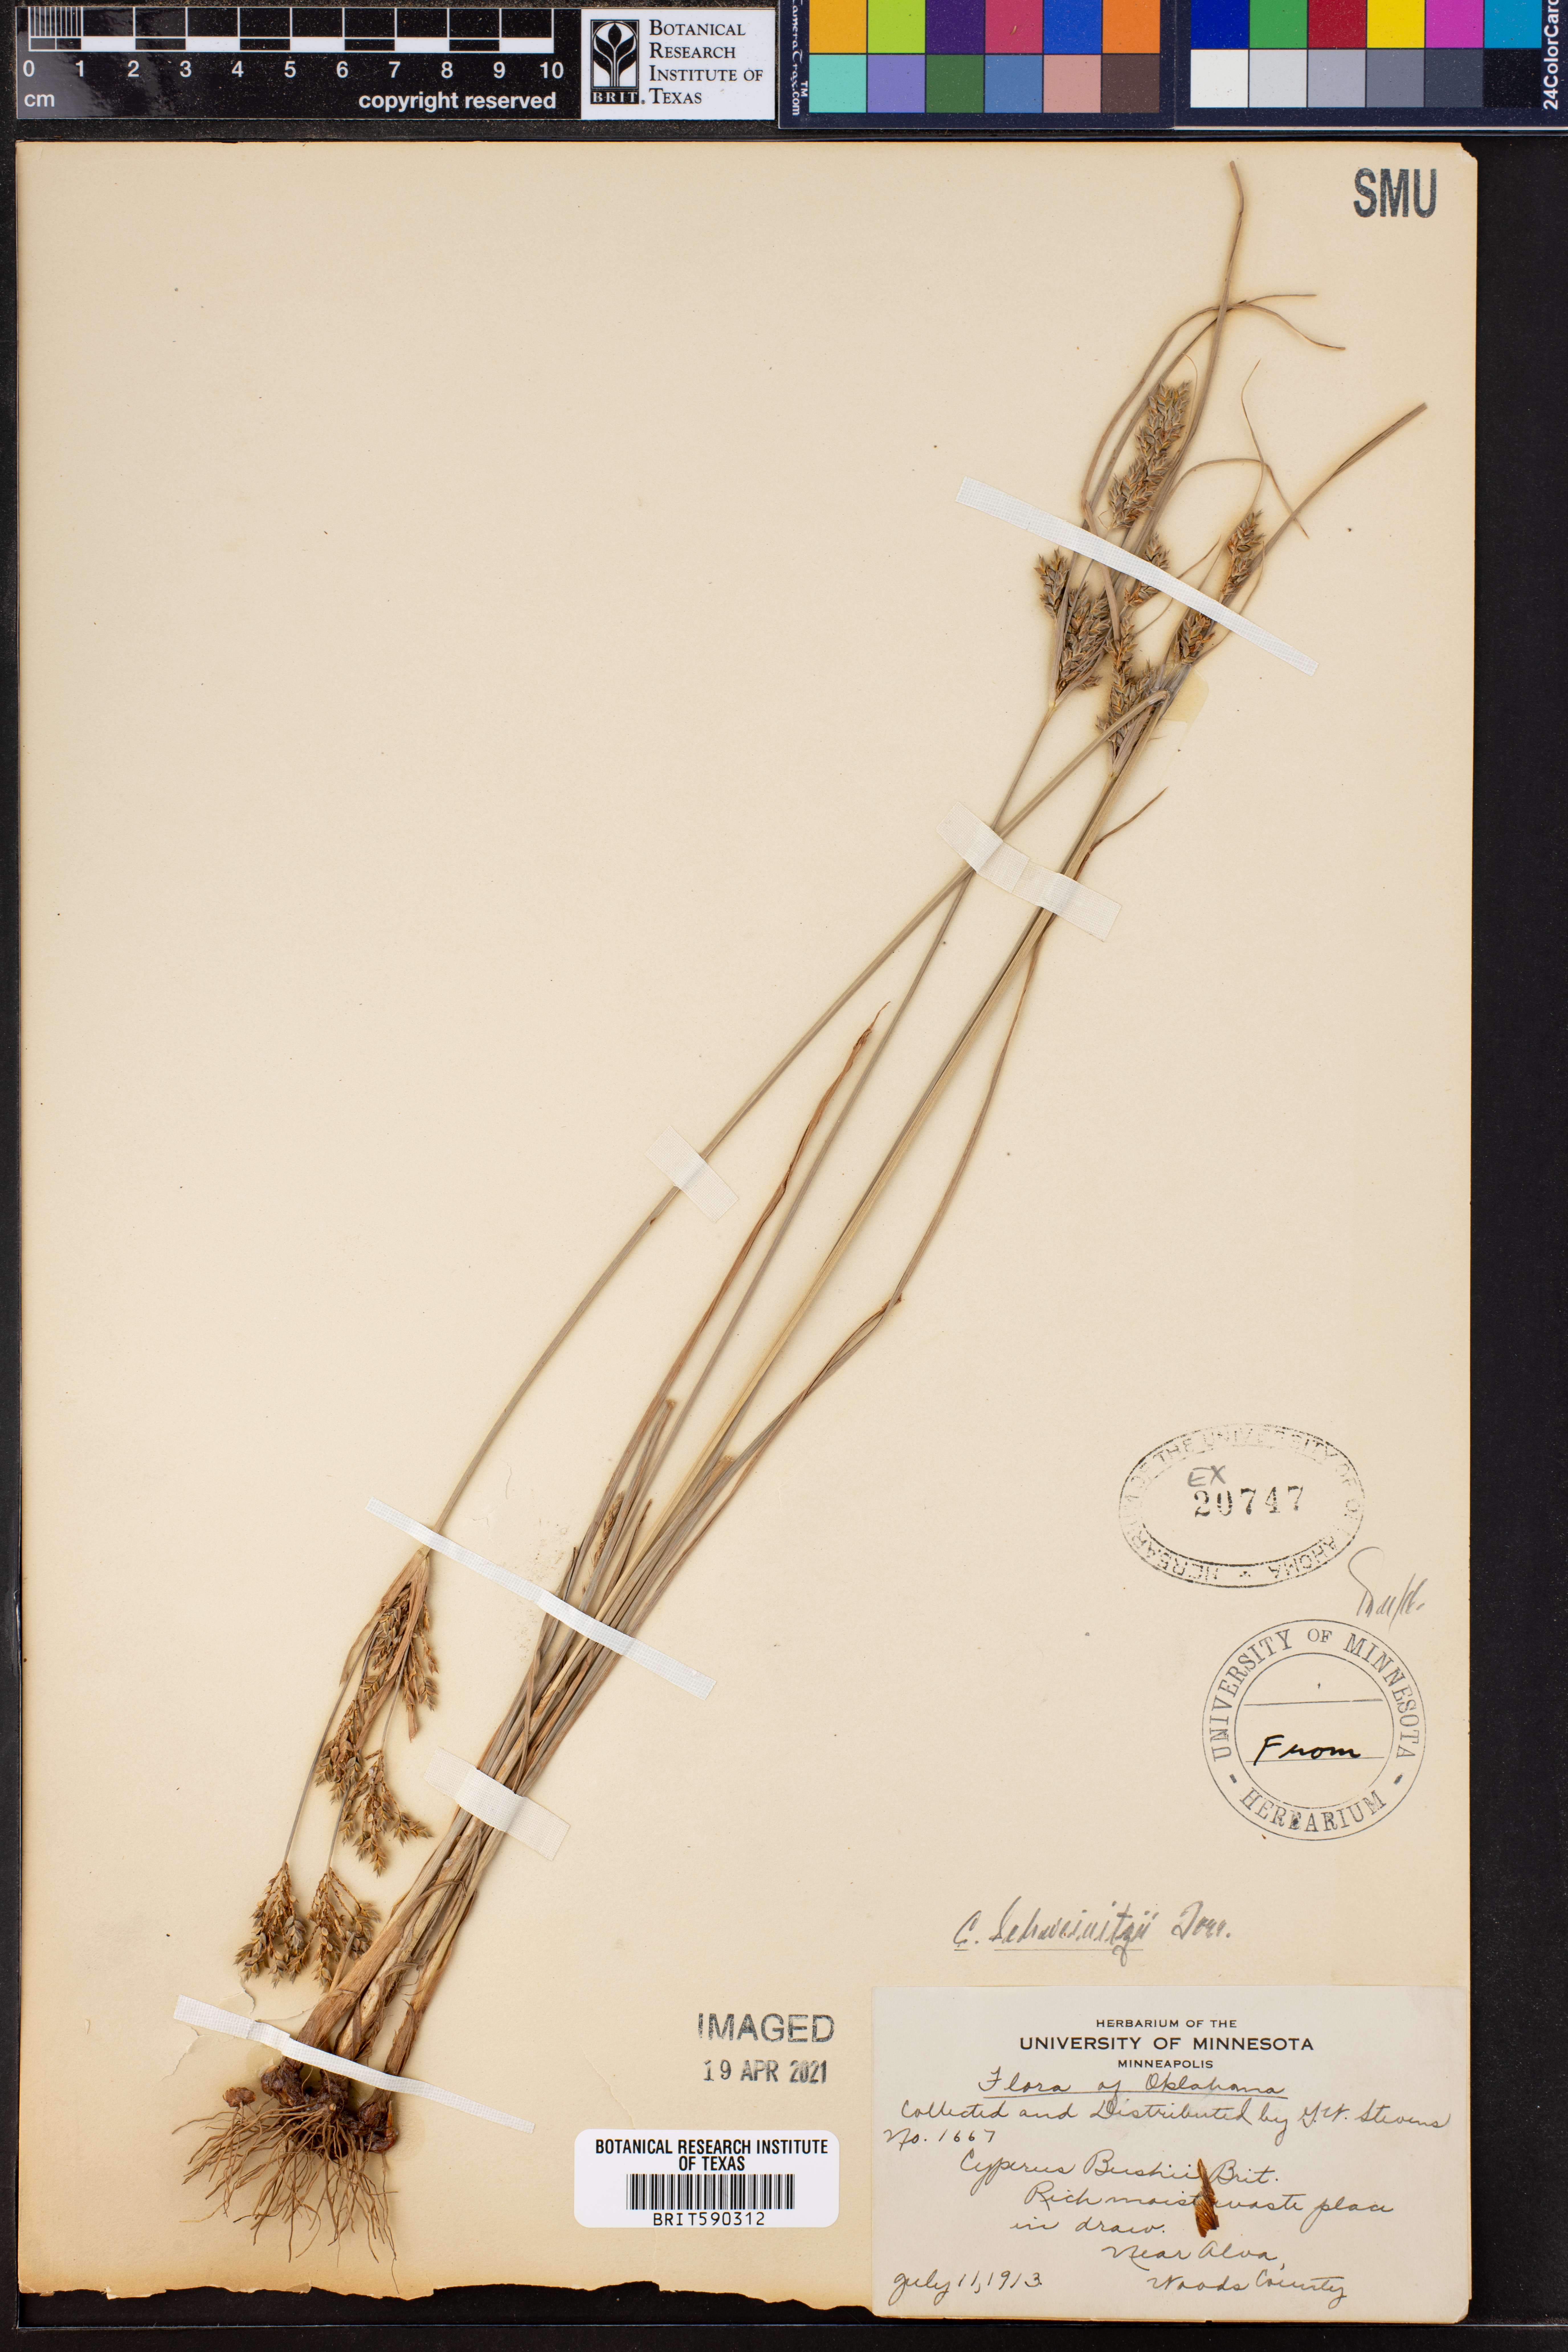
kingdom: Plantae
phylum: Tracheophyta
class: Liliopsida
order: Poales
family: Cyperaceae
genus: Cyperus
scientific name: Cyperus schweinitzii
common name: Schweinitz's cyperus
